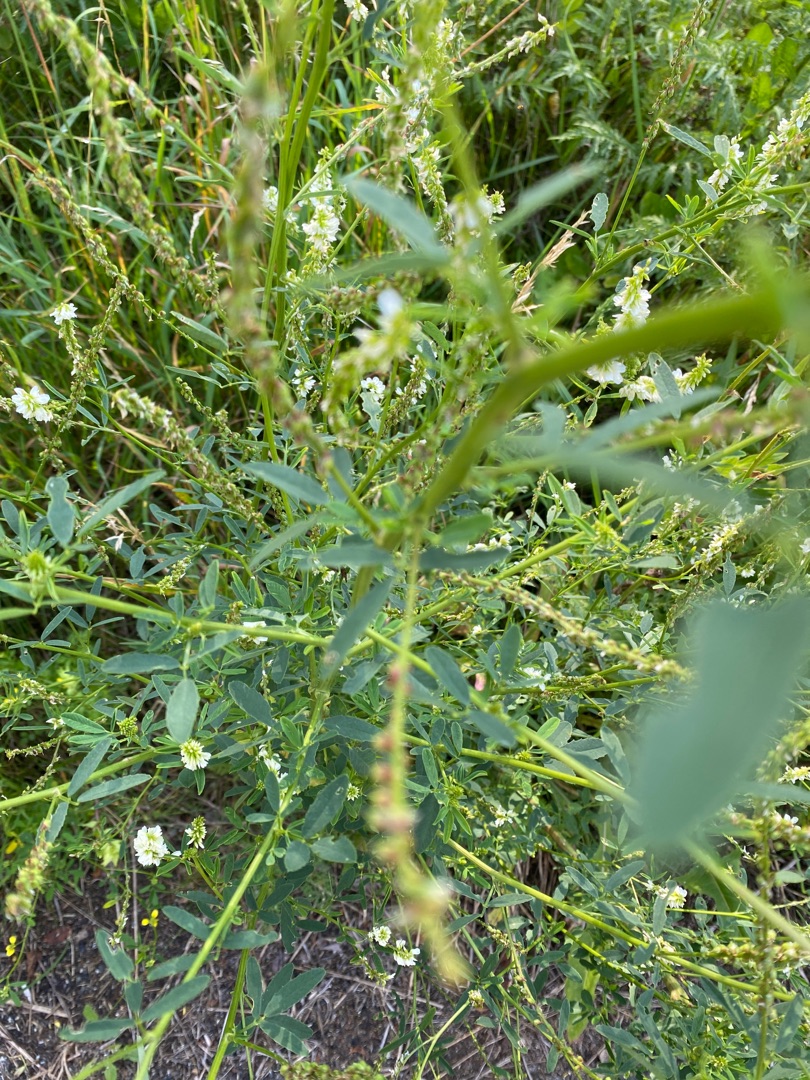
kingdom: Plantae
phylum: Tracheophyta
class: Magnoliopsida
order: Fabales
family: Fabaceae
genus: Melilotus
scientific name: Melilotus albus
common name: Hvid stenkløver
